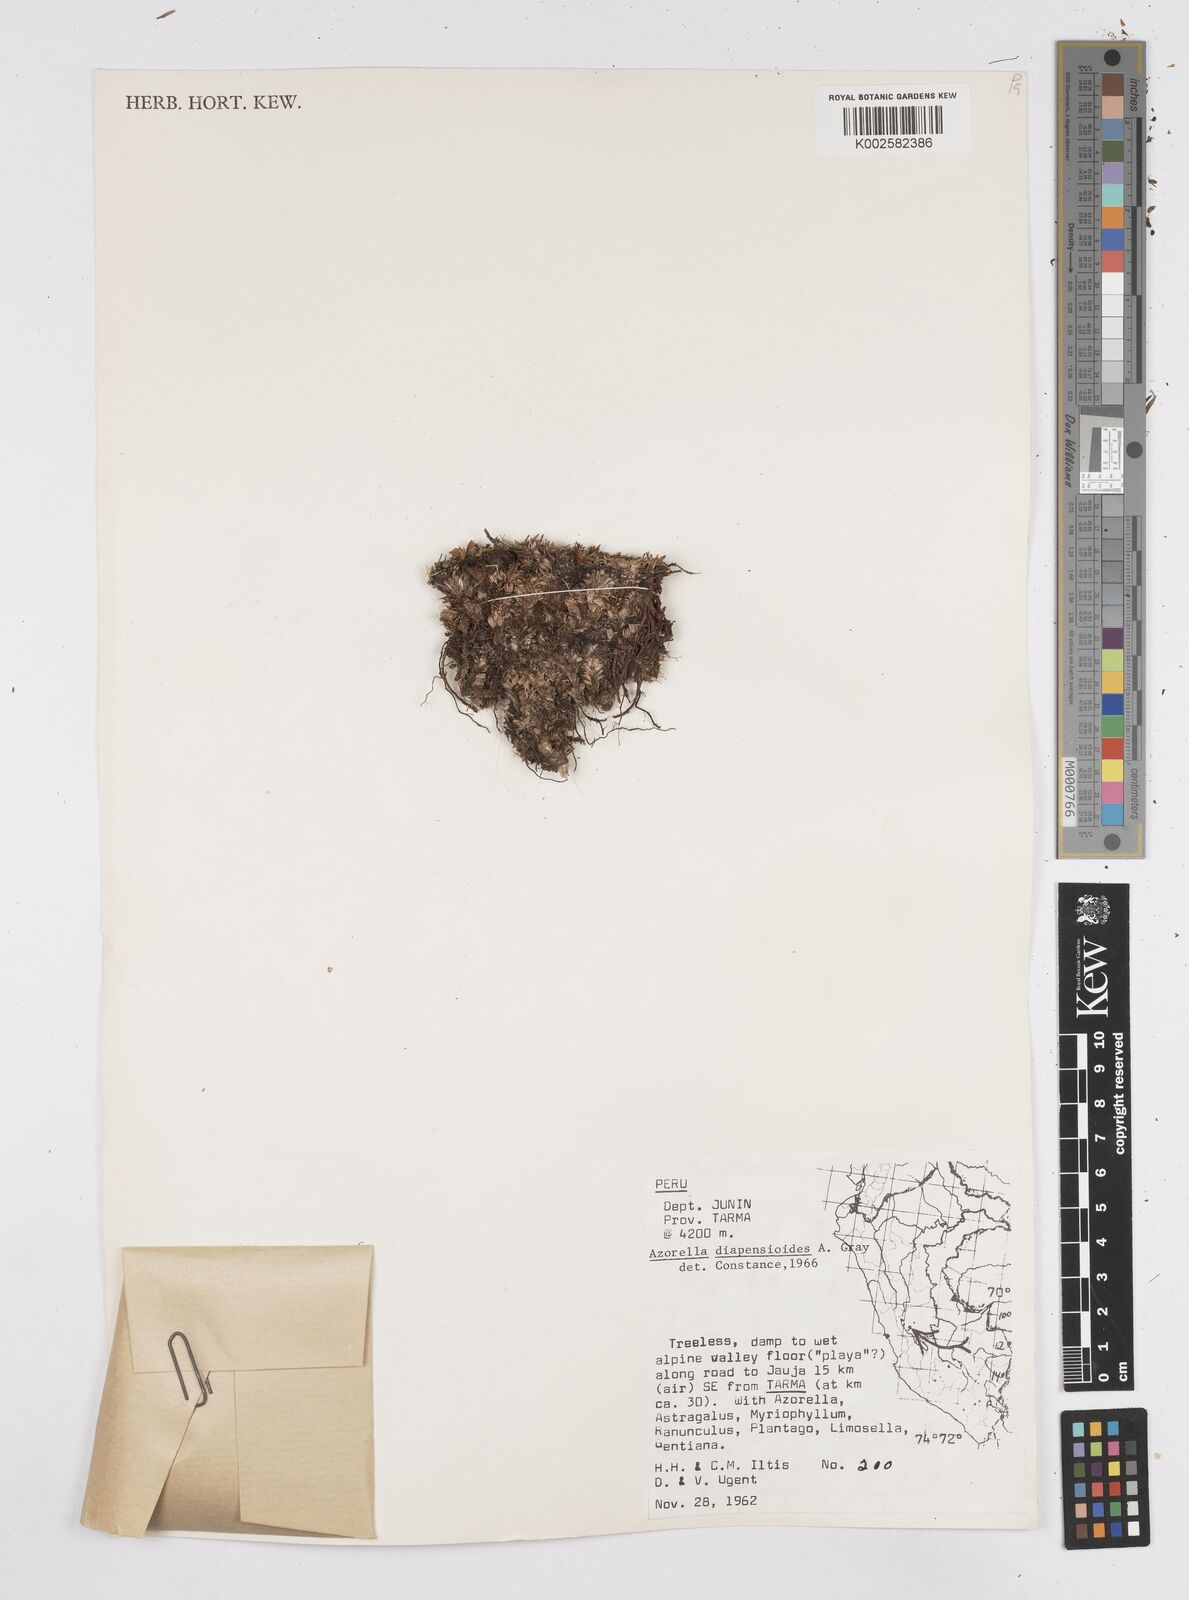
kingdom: Plantae
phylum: Tracheophyta
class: Magnoliopsida
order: Apiales
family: Apiaceae
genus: Azorella
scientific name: Azorella diapensioides
